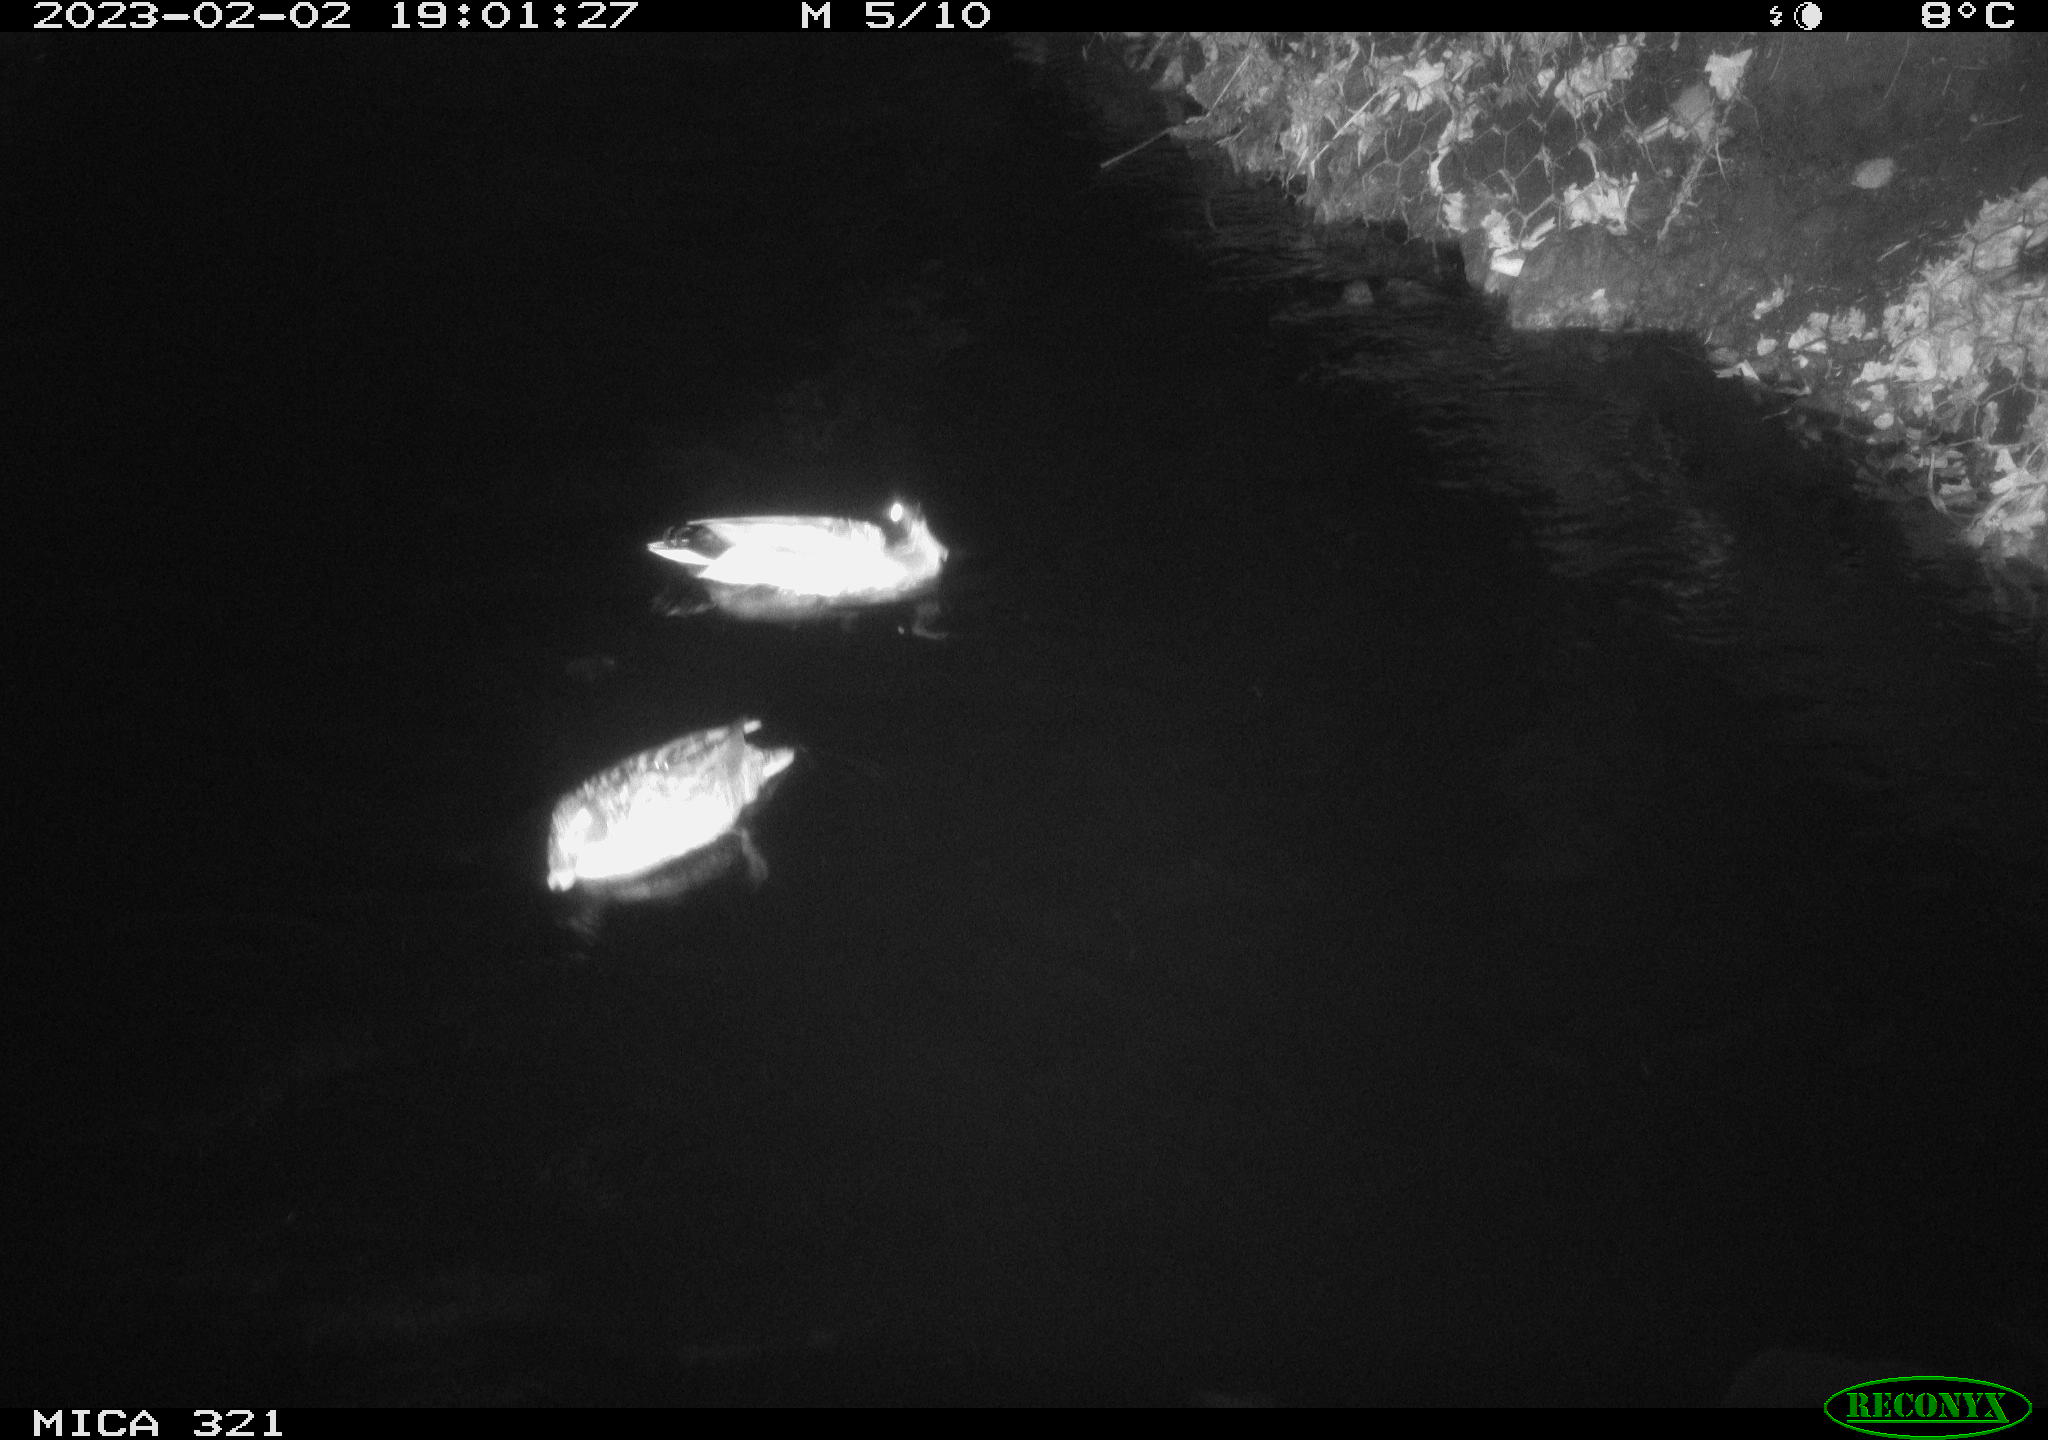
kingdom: Animalia
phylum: Chordata
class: Aves
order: Anseriformes
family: Anatidae
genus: Anas
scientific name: Anas
